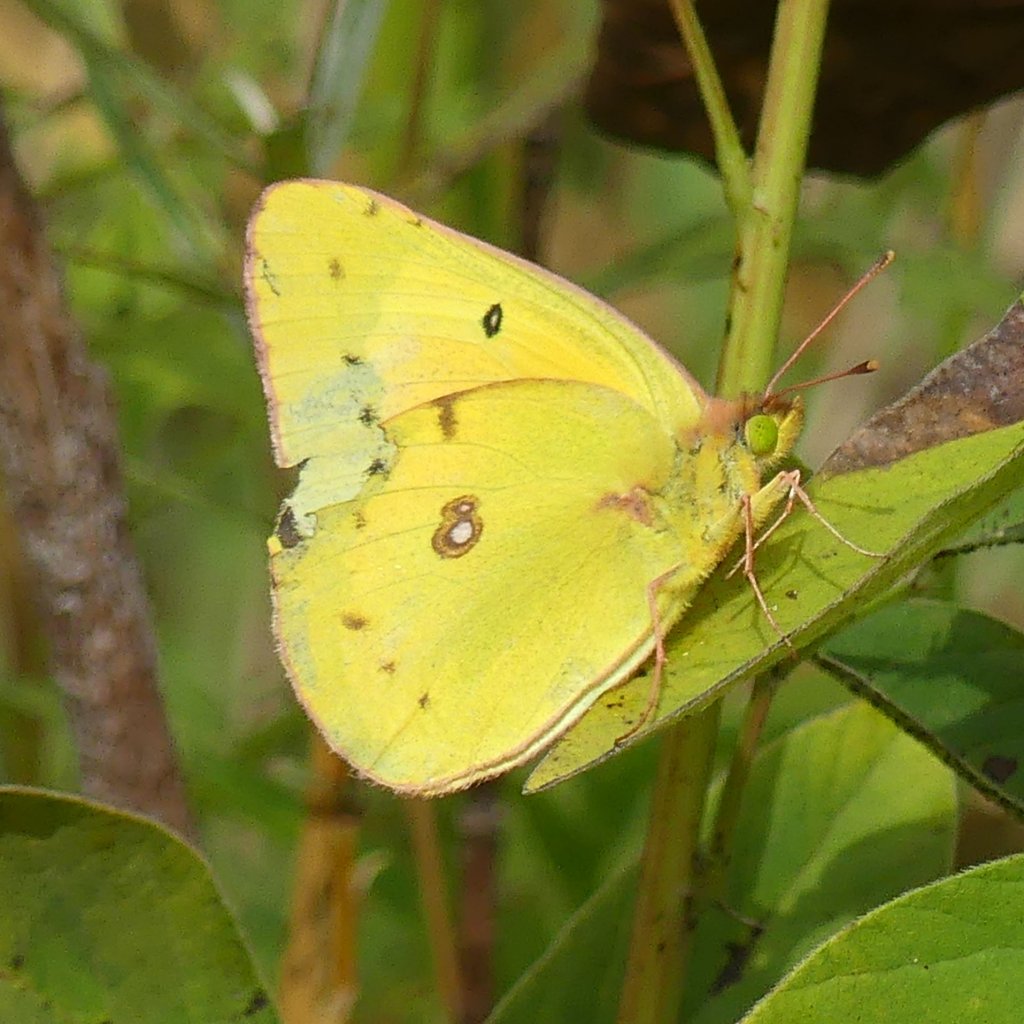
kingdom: Animalia
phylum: Arthropoda
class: Insecta
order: Lepidoptera
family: Pieridae
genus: Colias
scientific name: Colias eurytheme
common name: Orange Sulphur
